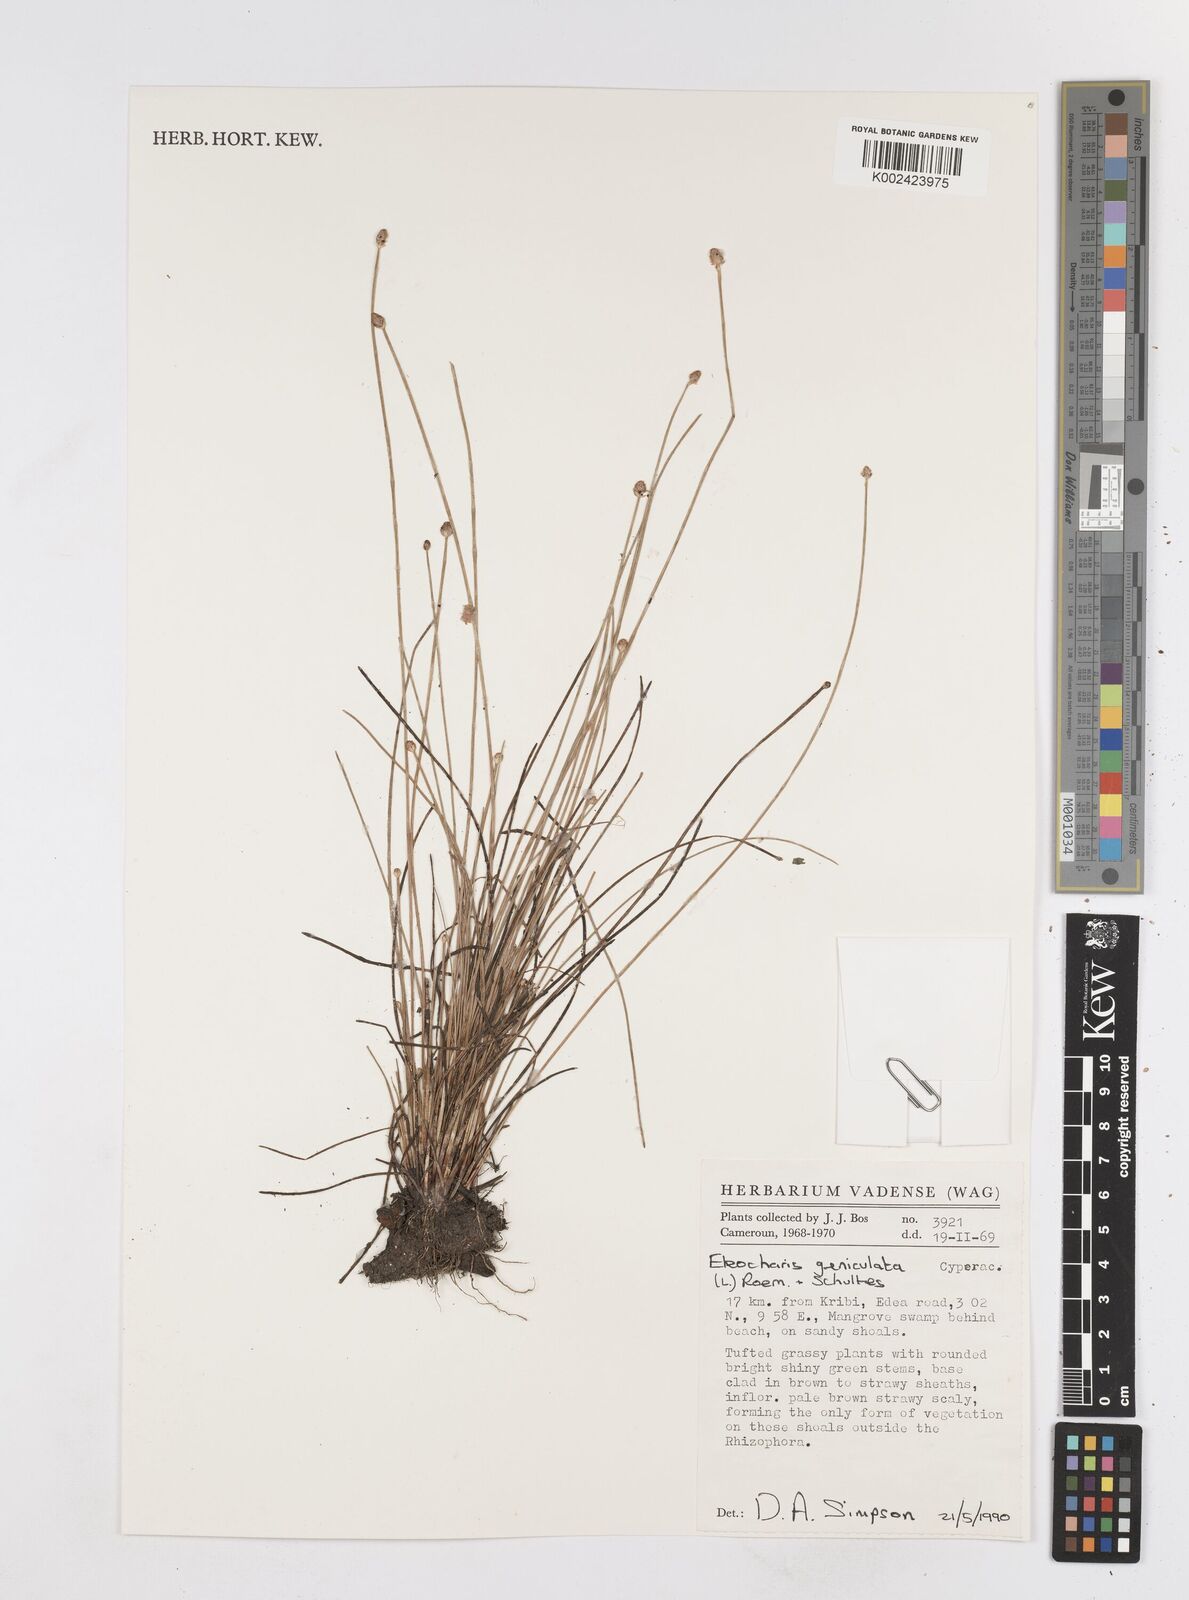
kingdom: Plantae
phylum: Tracheophyta
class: Liliopsida
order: Poales
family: Cyperaceae
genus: Eleocharis
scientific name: Eleocharis geniculata
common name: Canada spikesedge
